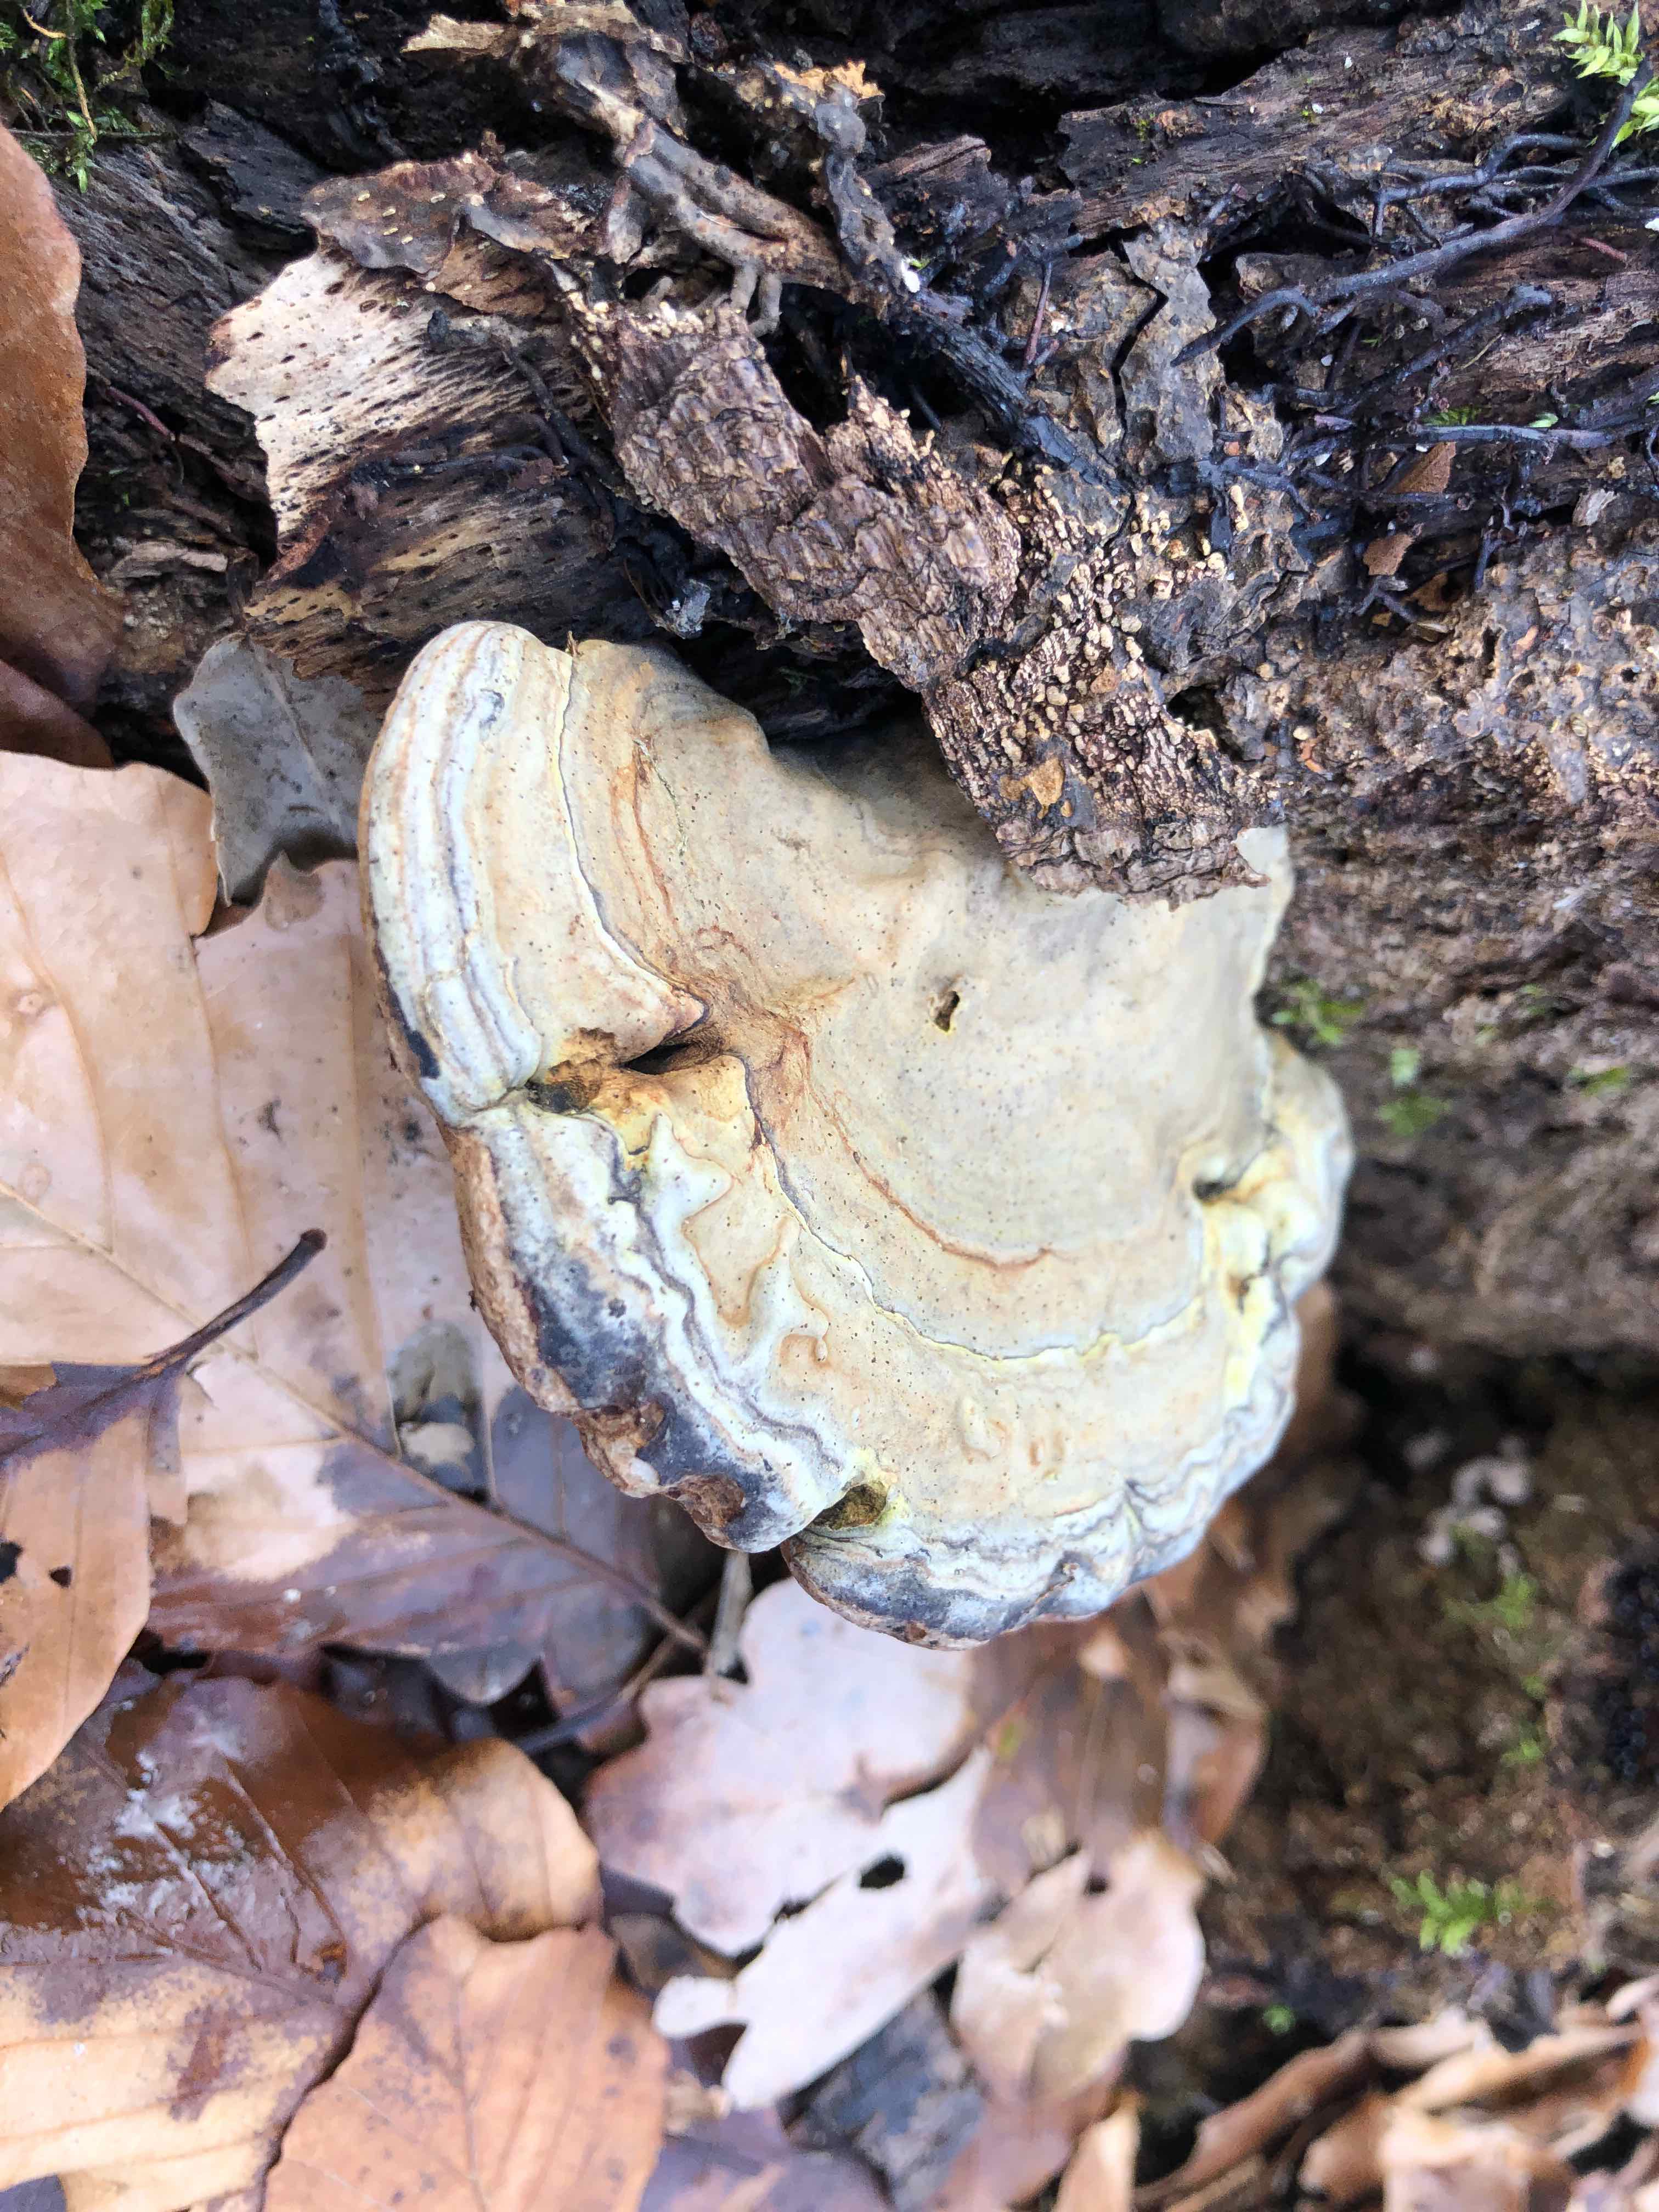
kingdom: Fungi
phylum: Basidiomycota
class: Agaricomycetes
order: Polyporales
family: Polyporaceae
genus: Ganoderma
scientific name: Ganoderma applanatum
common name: flad lakporesvamp
